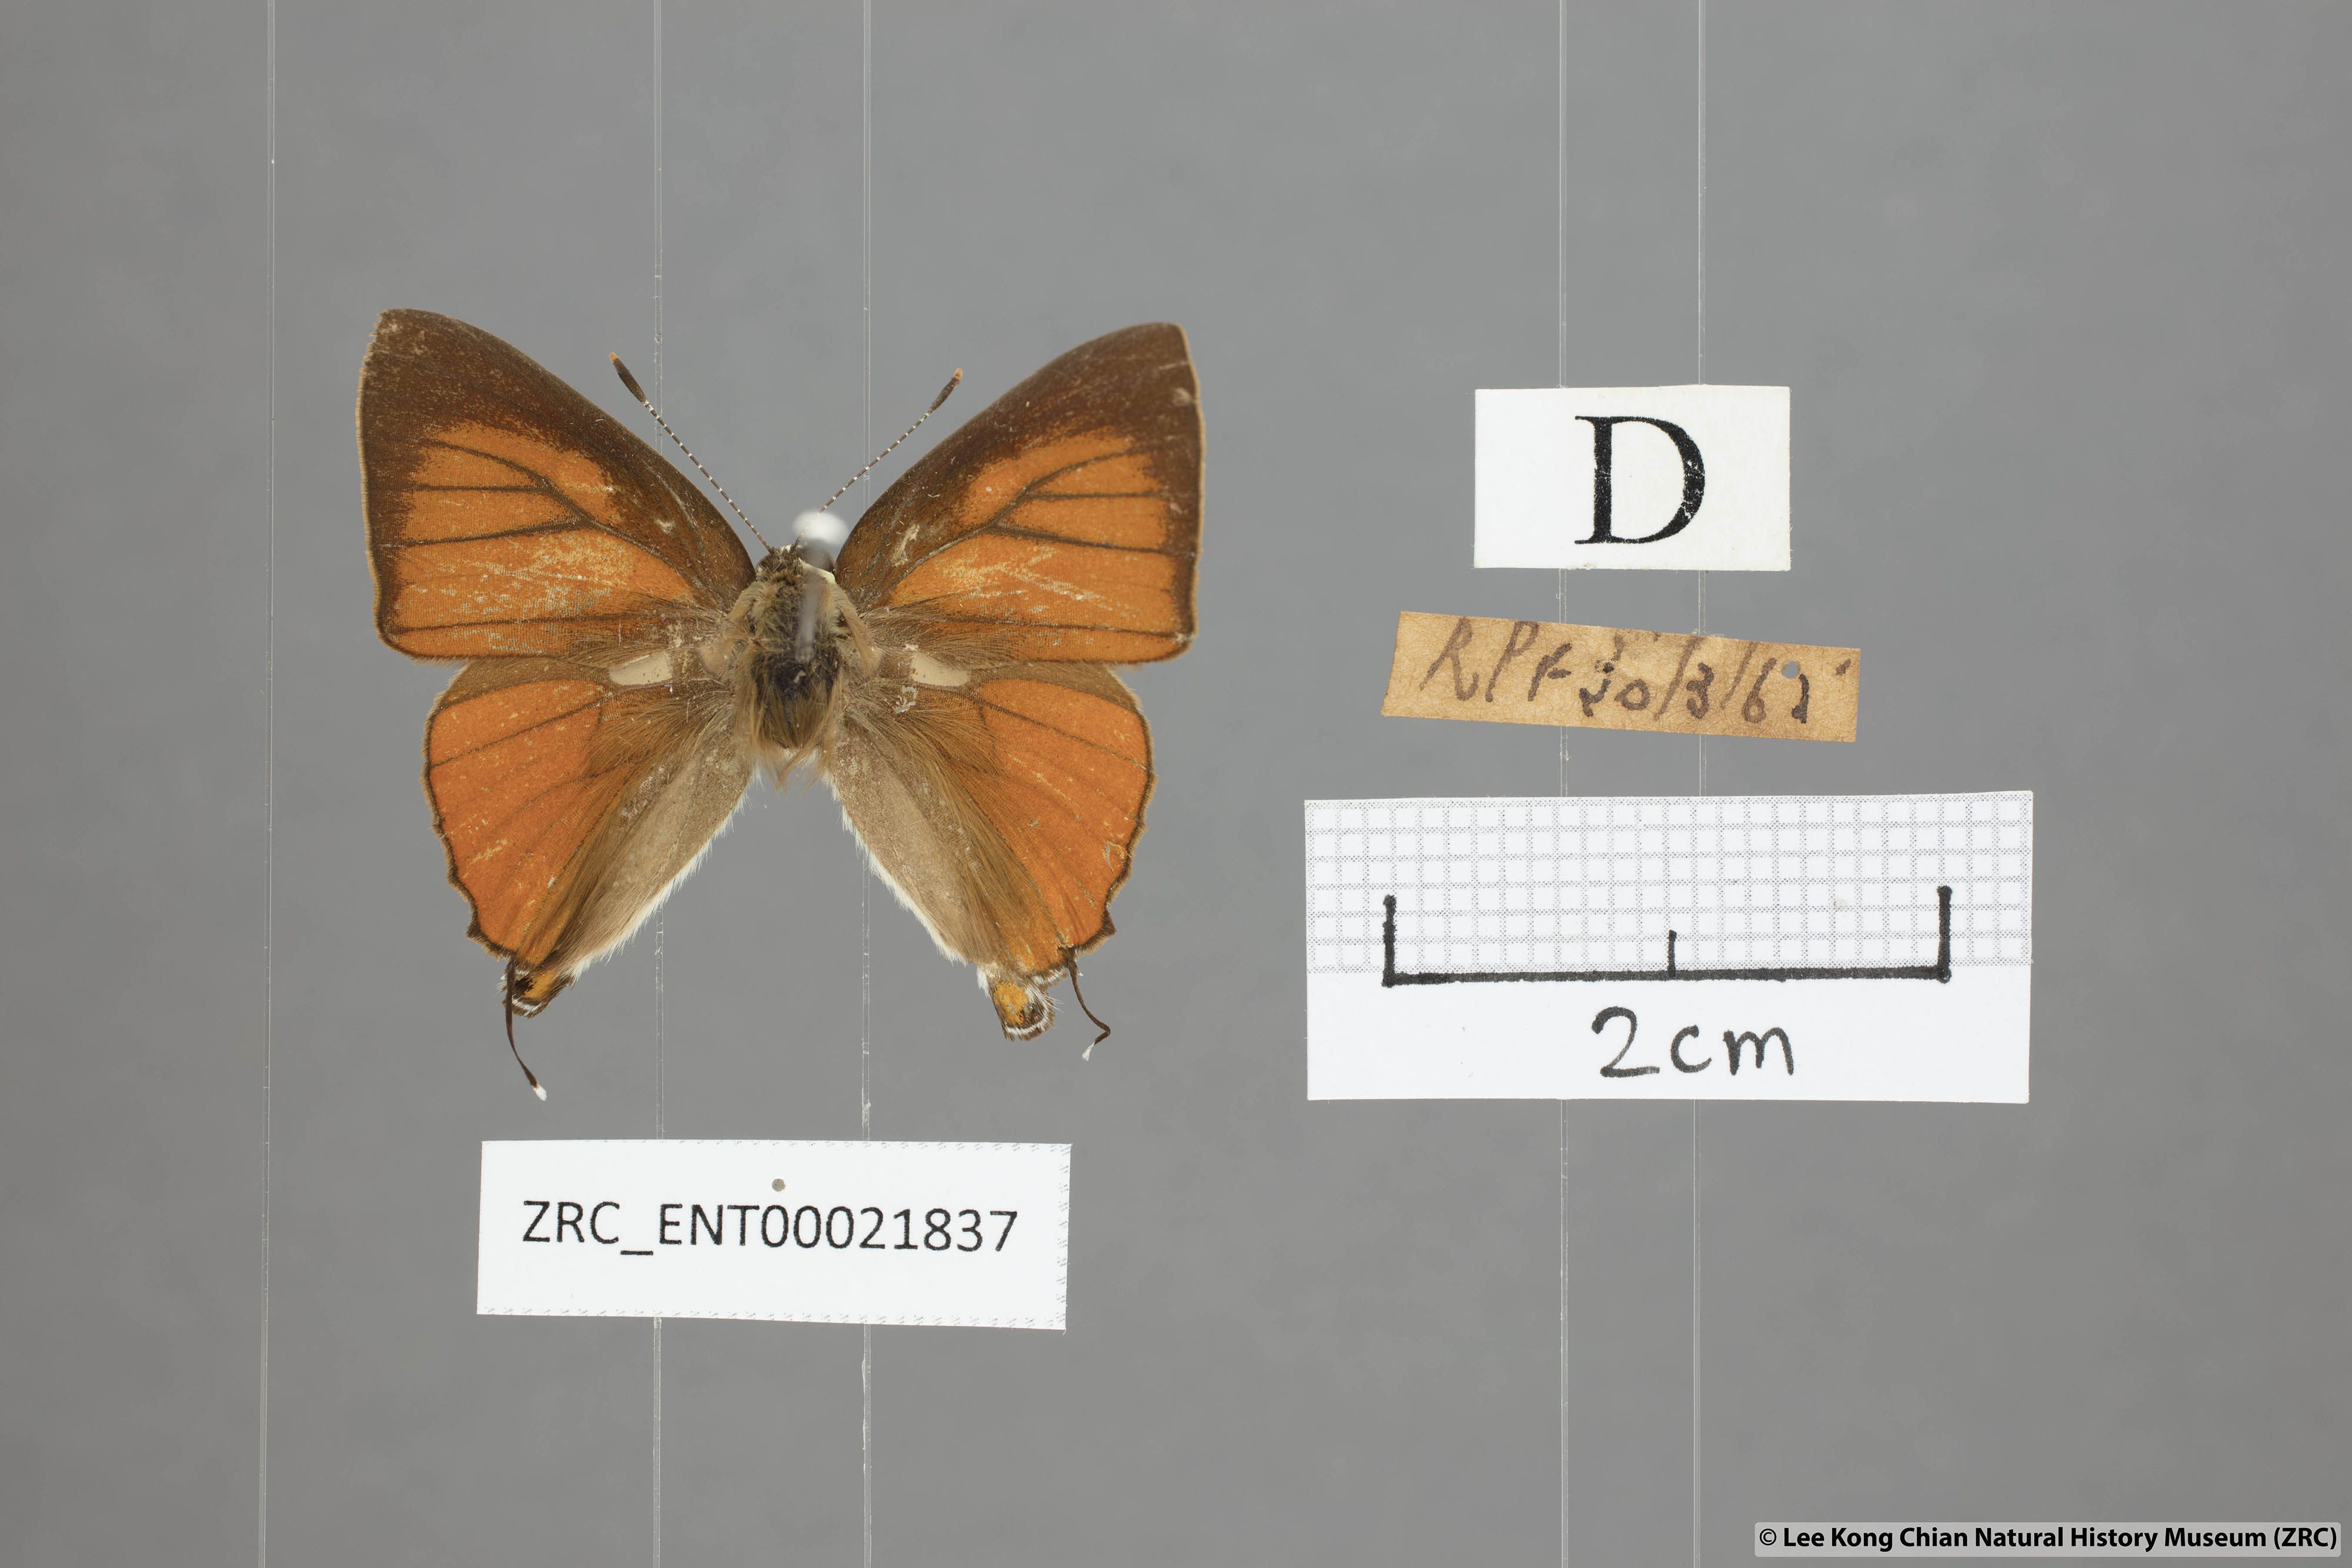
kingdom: Animalia
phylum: Arthropoda
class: Insecta
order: Lepidoptera
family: Lycaenidae
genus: Rapala
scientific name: Rapala iarbas
